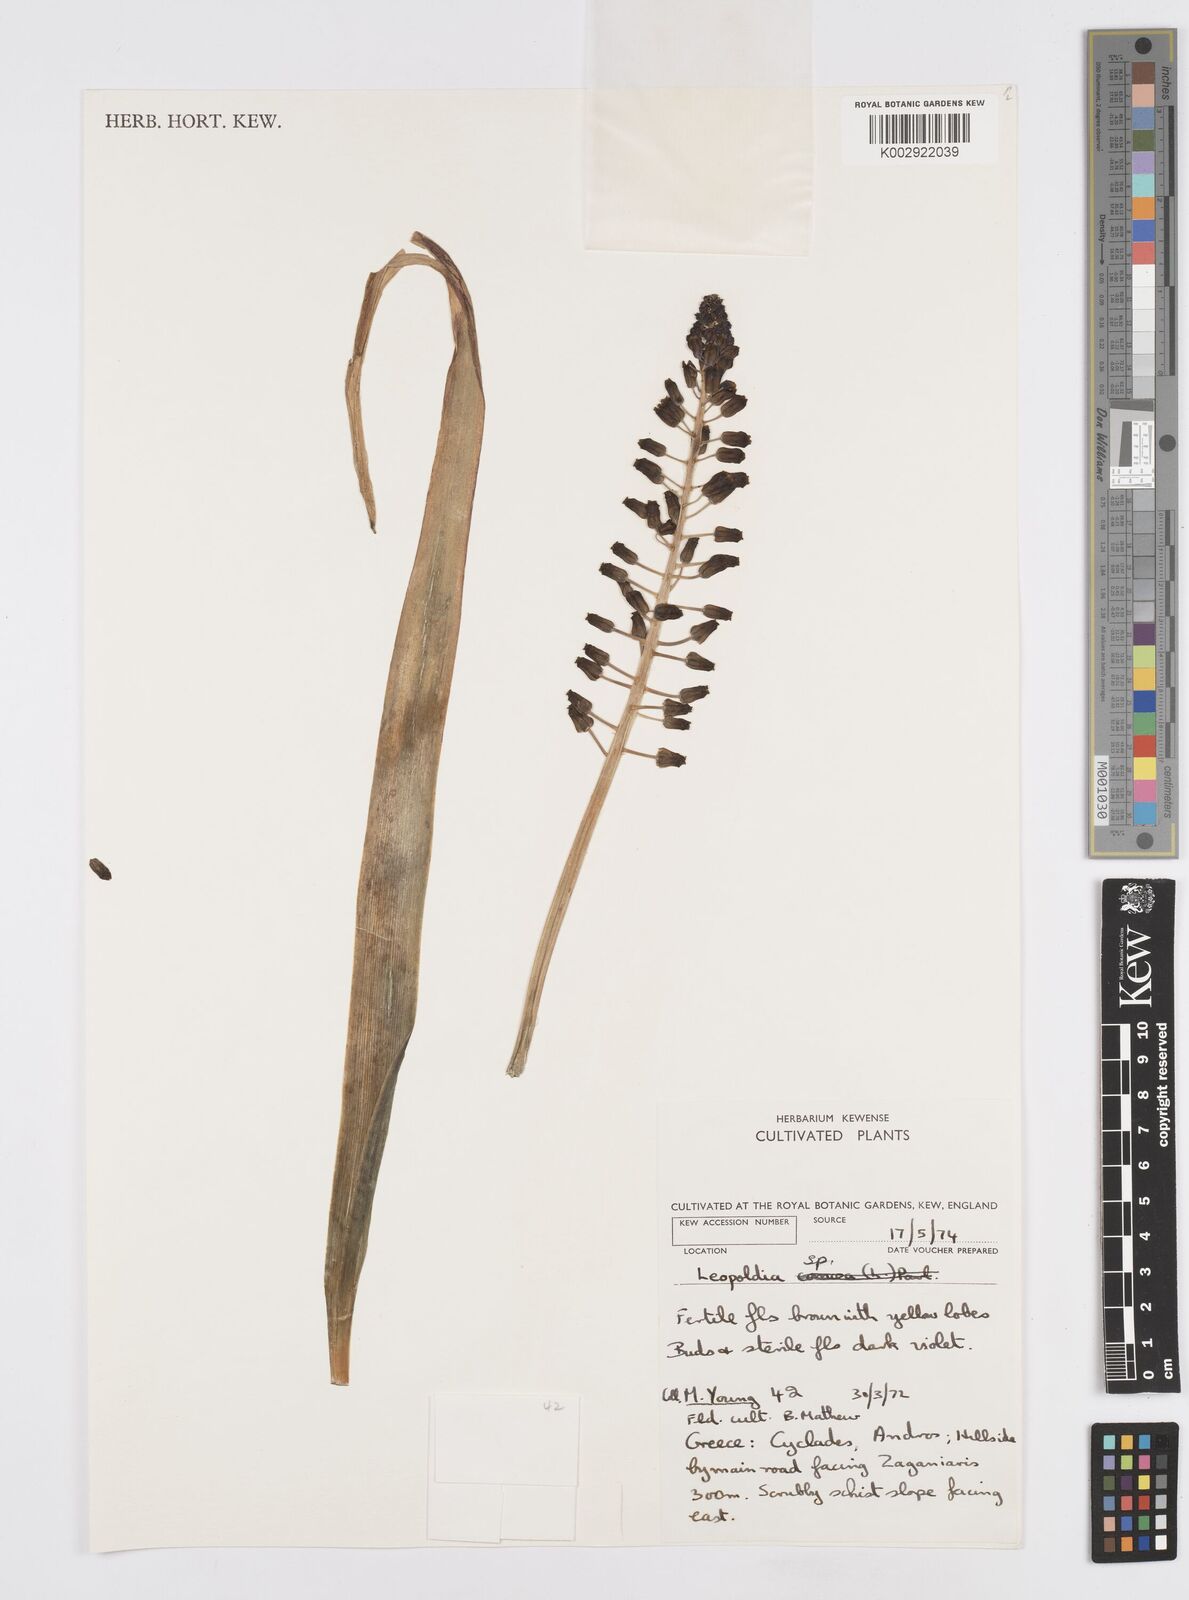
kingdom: Animalia
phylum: Mollusca
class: Cephalopoda
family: Neocomitidae
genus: Leopoldia
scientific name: Leopoldia
